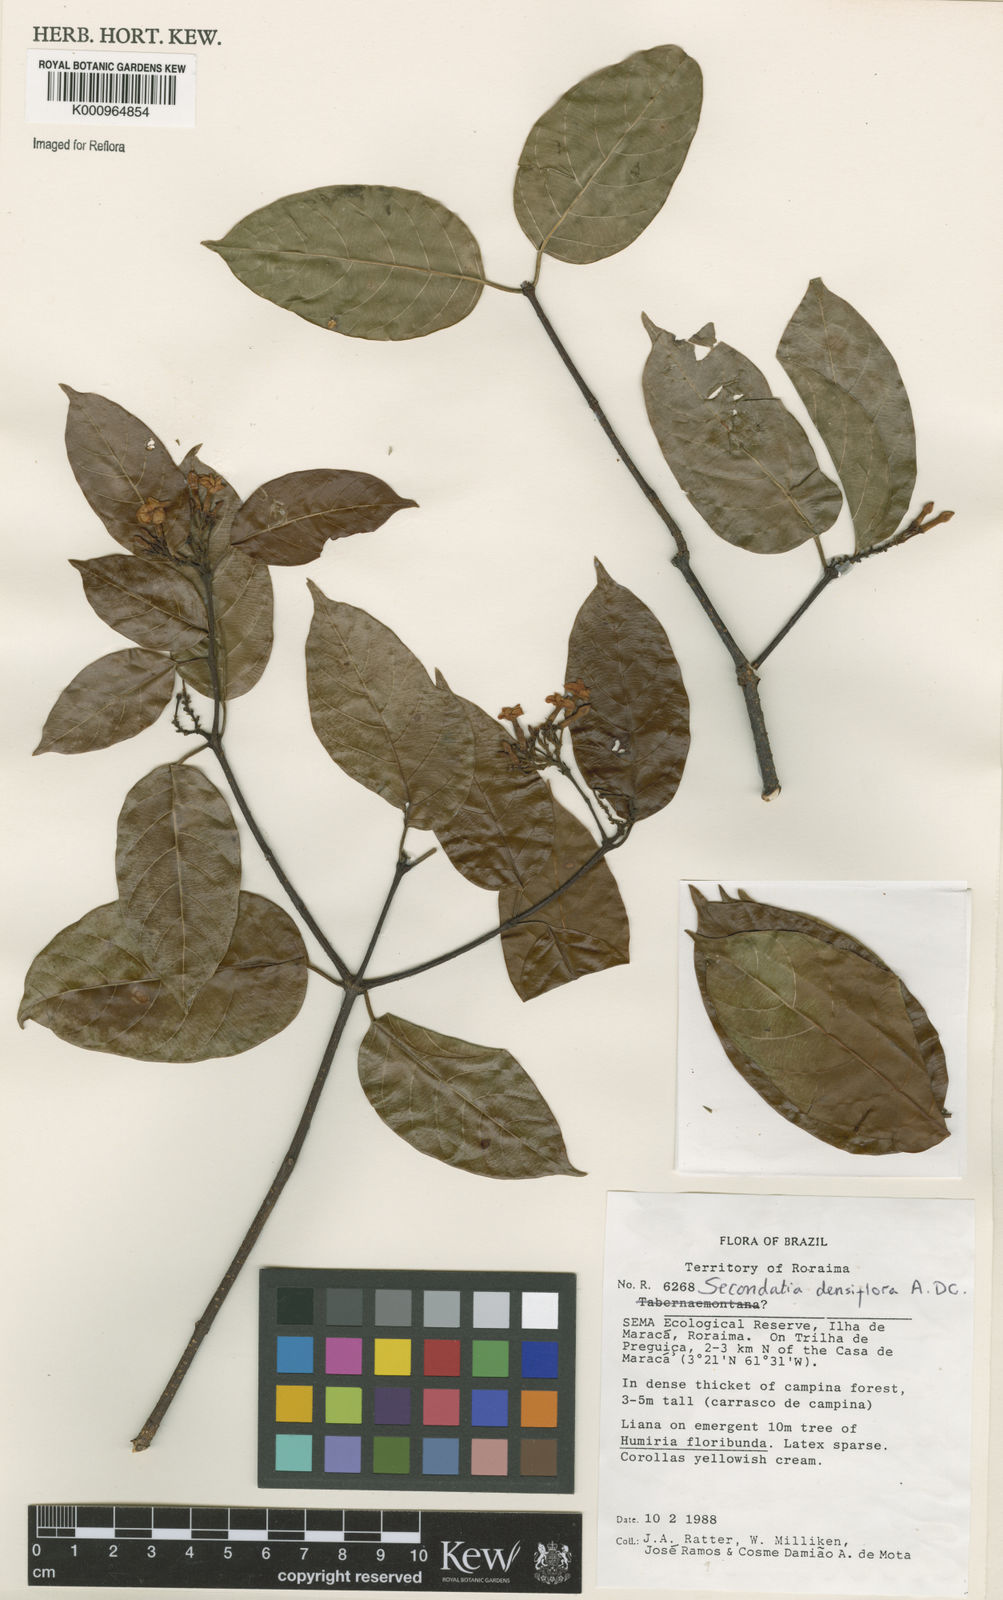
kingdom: Plantae
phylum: Tracheophyta
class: Magnoliopsida
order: Gentianales
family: Apocynaceae
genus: Secondatia
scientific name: Secondatia densiflora
